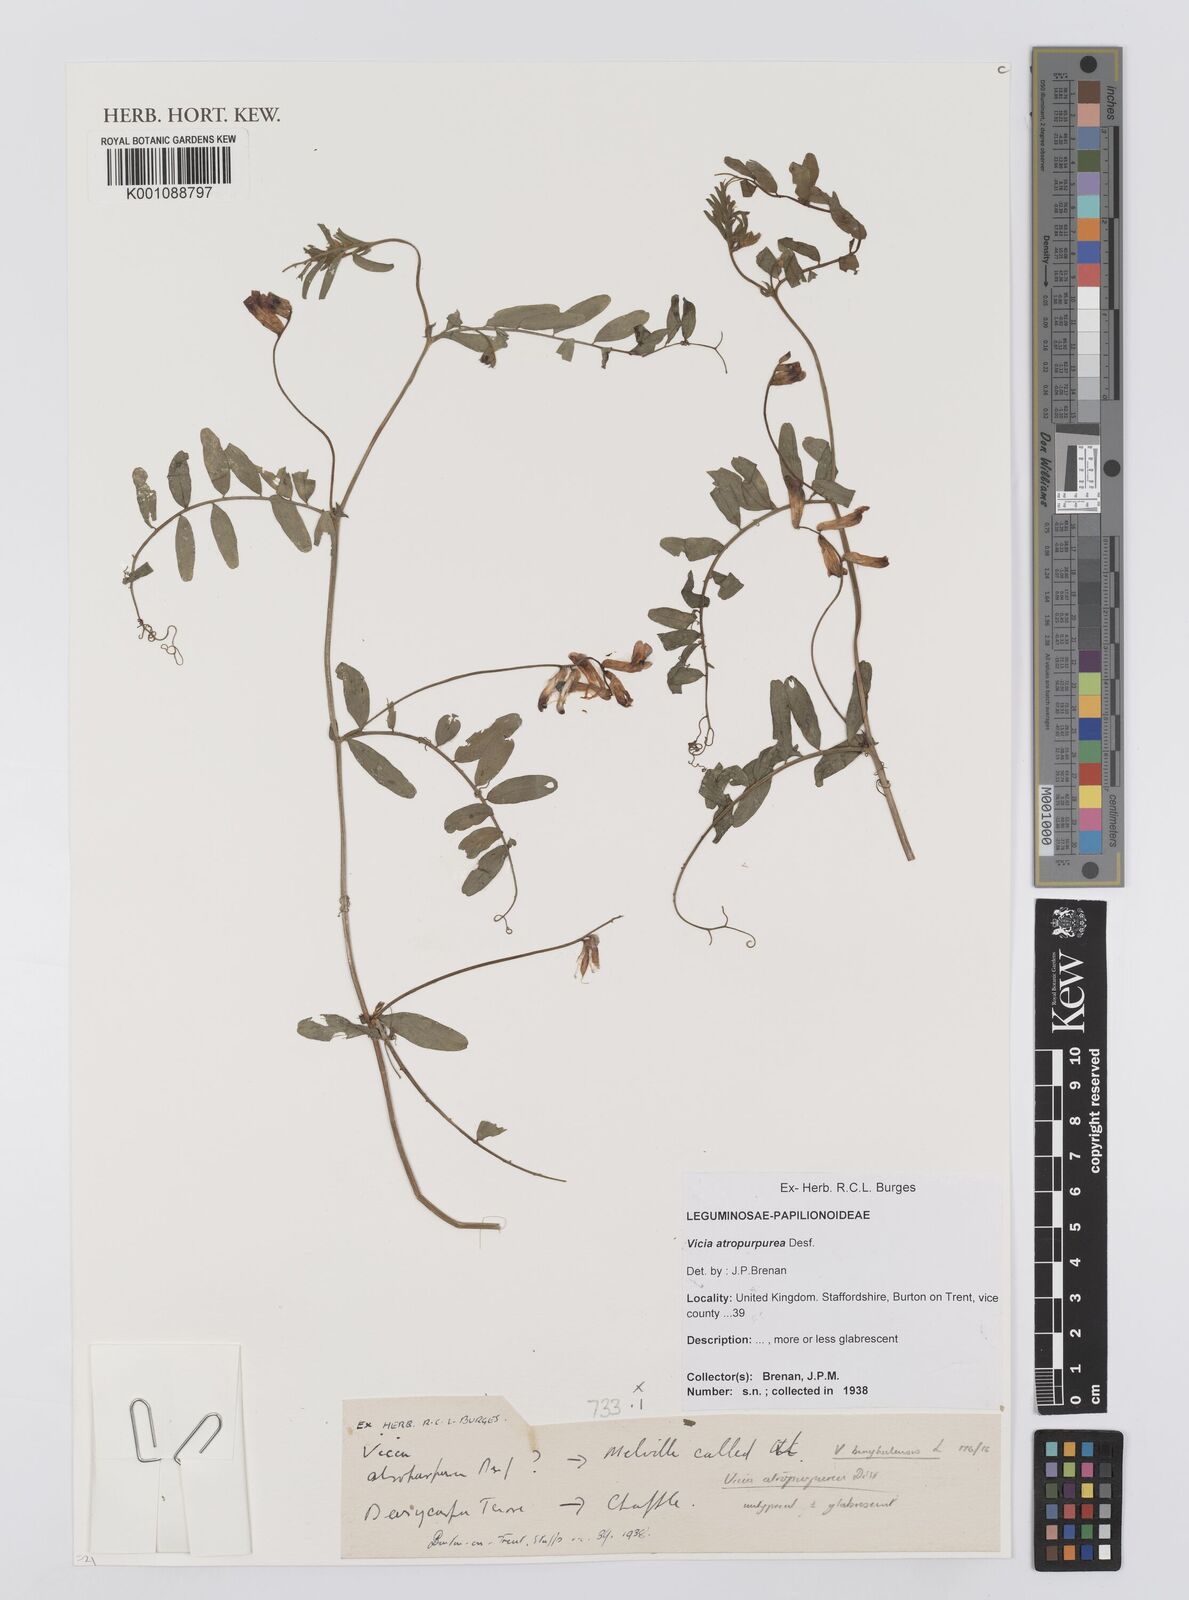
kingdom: Plantae
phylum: Tracheophyta
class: Magnoliopsida
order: Fabales
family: Fabaceae
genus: Vicia
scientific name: Vicia benghalensis
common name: Purple vetch
